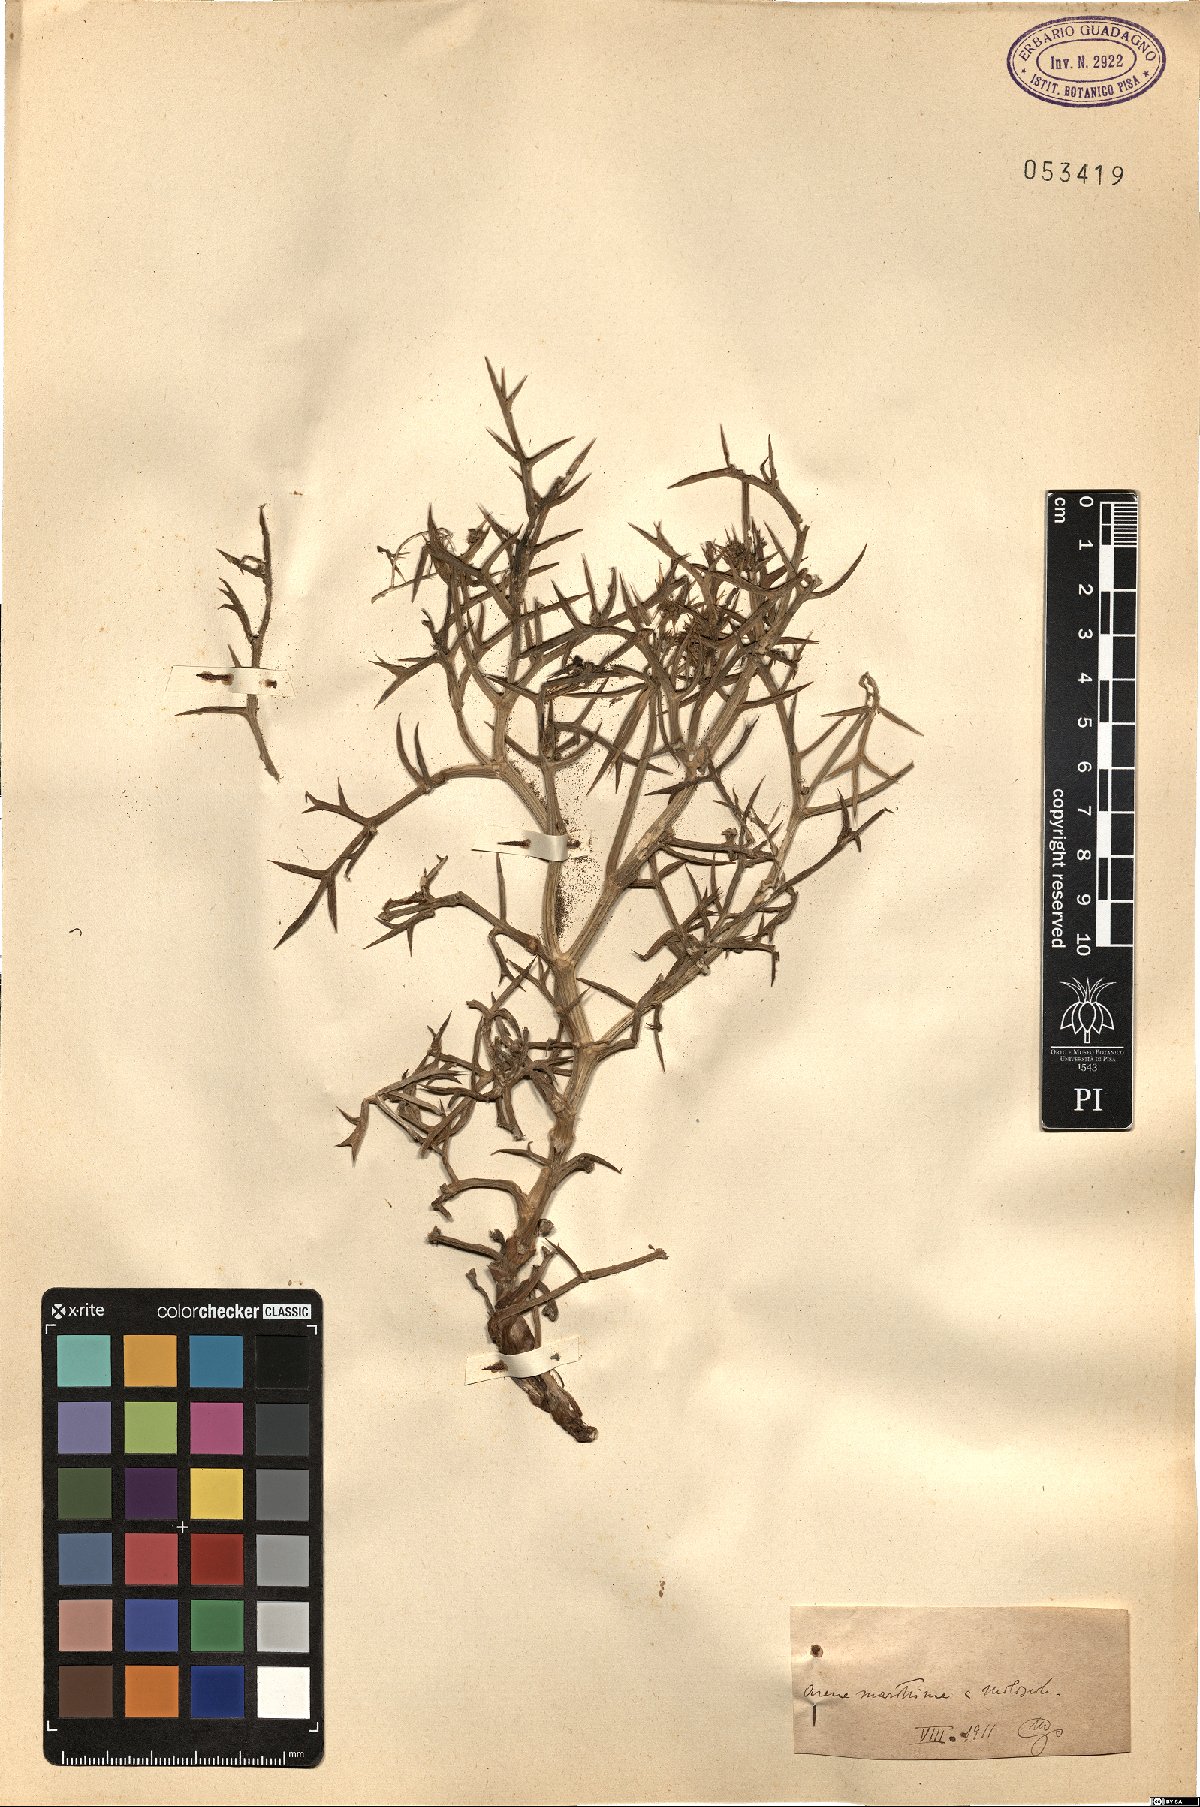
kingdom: Plantae
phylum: Tracheophyta
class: Magnoliopsida
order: Apiales
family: Apiaceae
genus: Echinophora
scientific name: Echinophora
